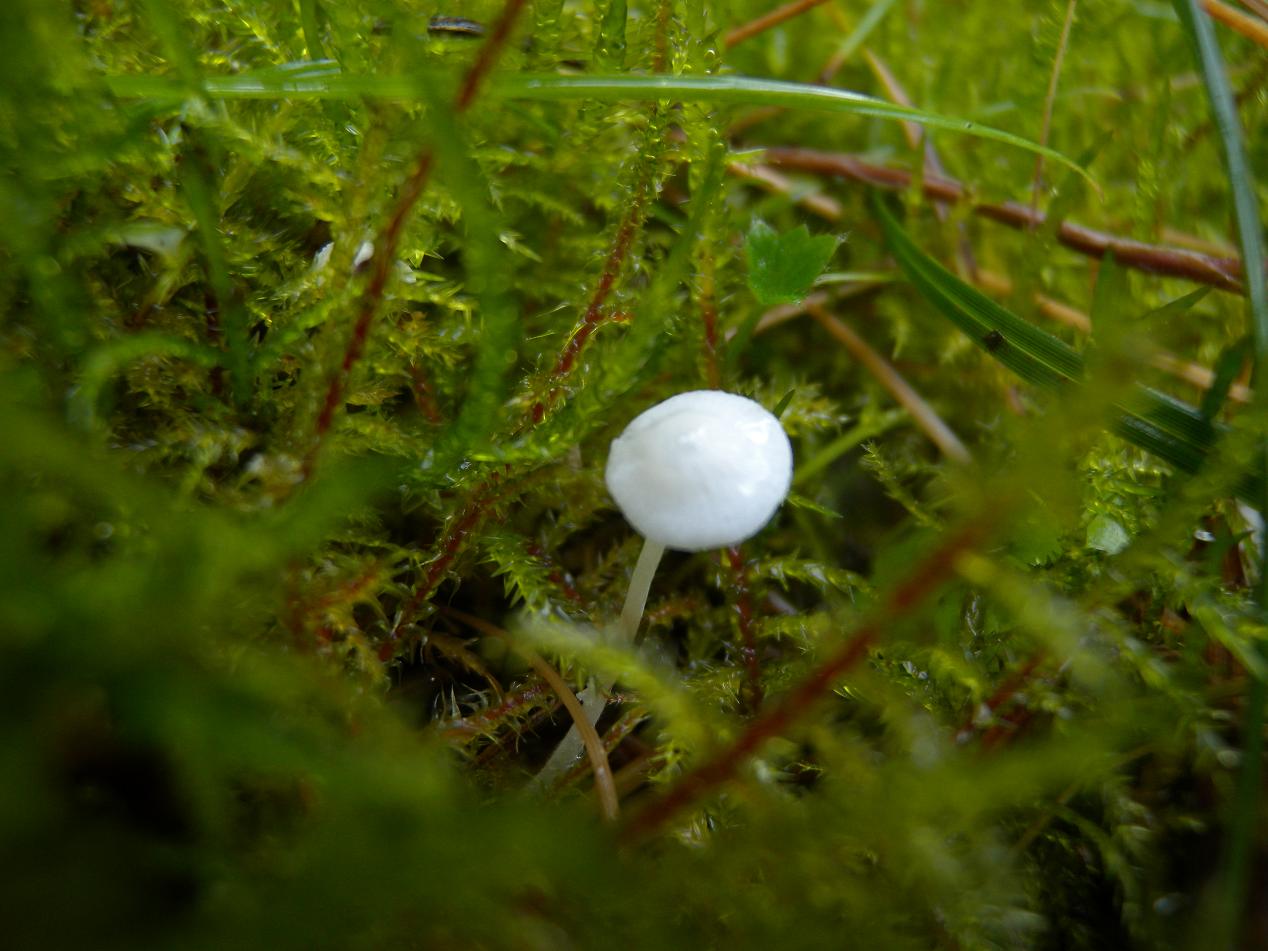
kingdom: Fungi
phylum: Basidiomycota
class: Agaricomycetes
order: Agaricales
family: Mycenaceae
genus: Hemimycena
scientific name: Hemimycena lactea
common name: mælkehvid huesvamp
